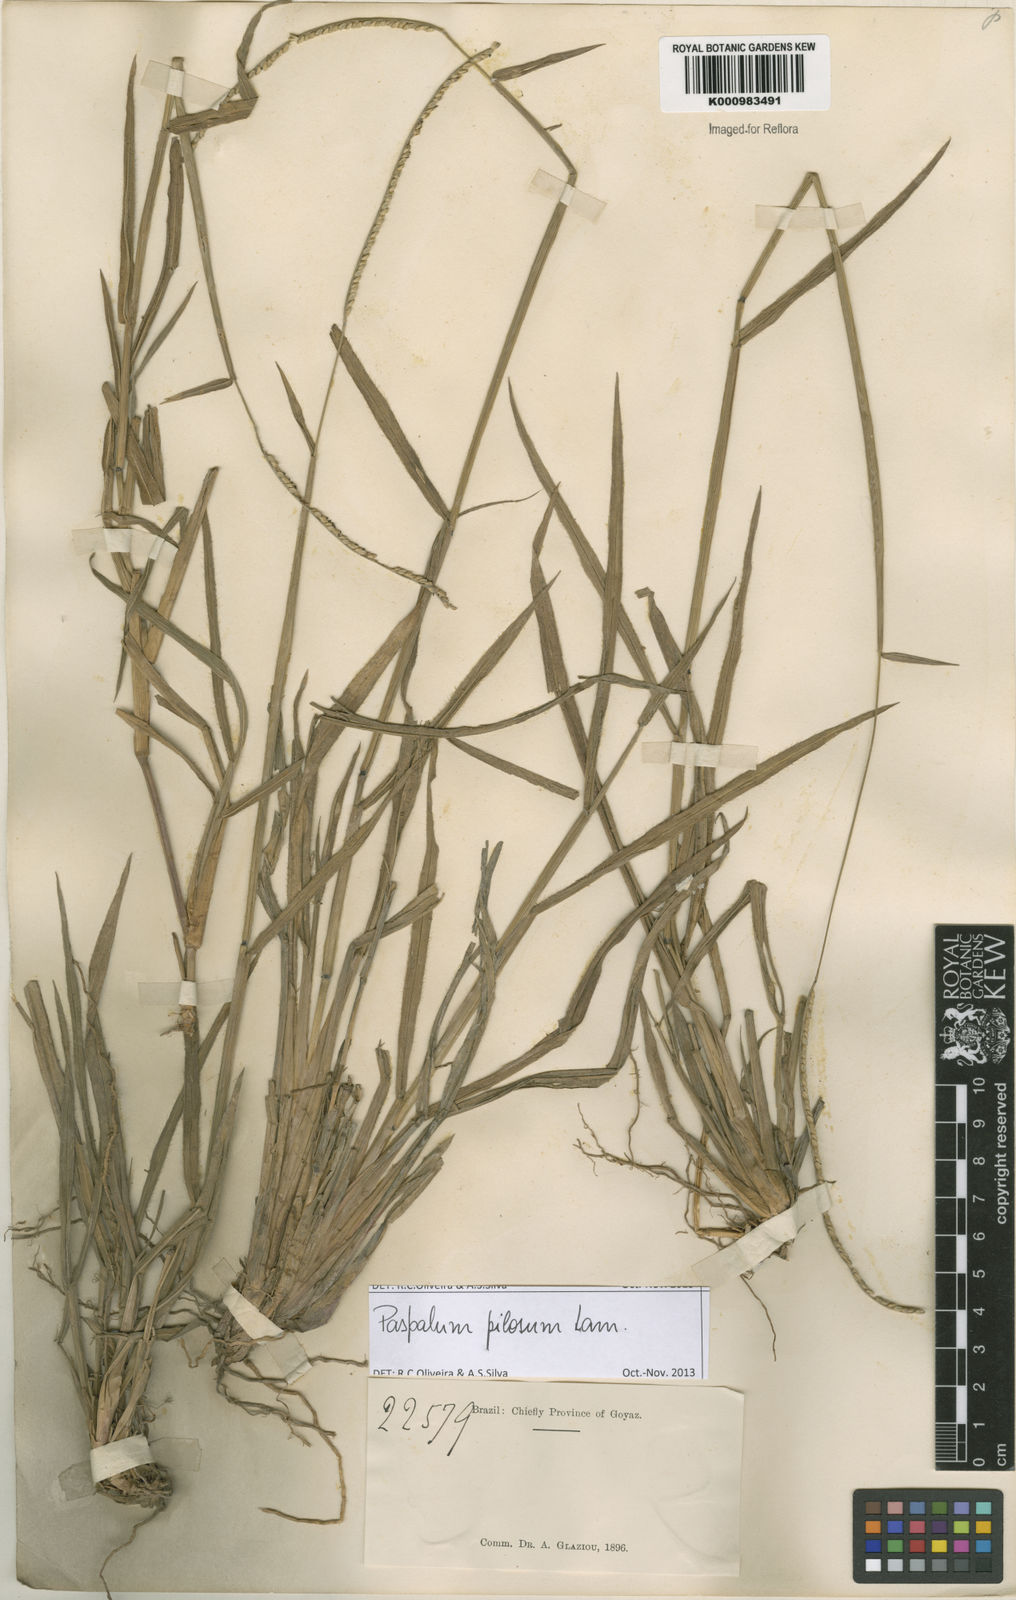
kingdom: Plantae
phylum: Tracheophyta
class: Liliopsida
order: Poales
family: Poaceae
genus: Paspalum
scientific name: Paspalum pilosum
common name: Crowngrass
